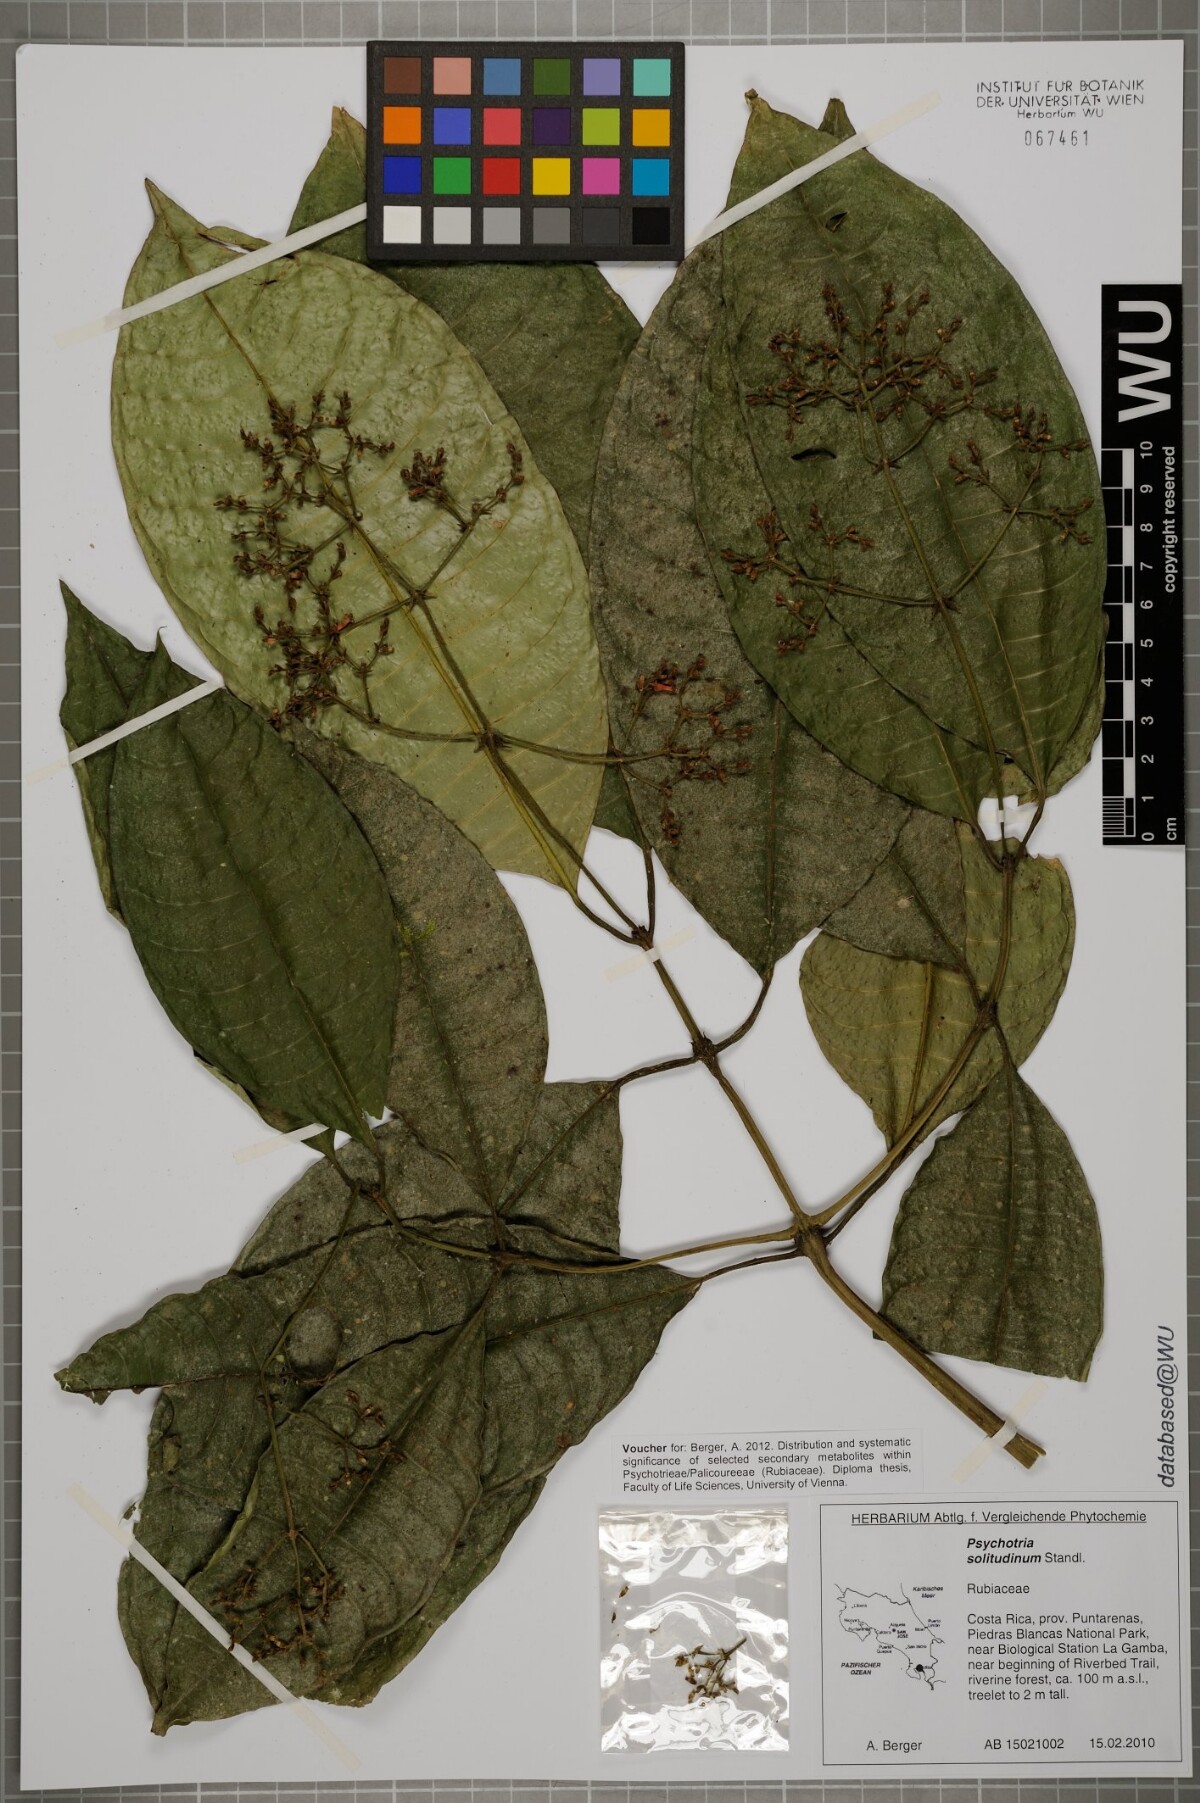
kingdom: Plantae
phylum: Tracheophyta
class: Magnoliopsida
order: Gentianales
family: Rubiaceae
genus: Palicourea
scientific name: Palicourea solitudinum
